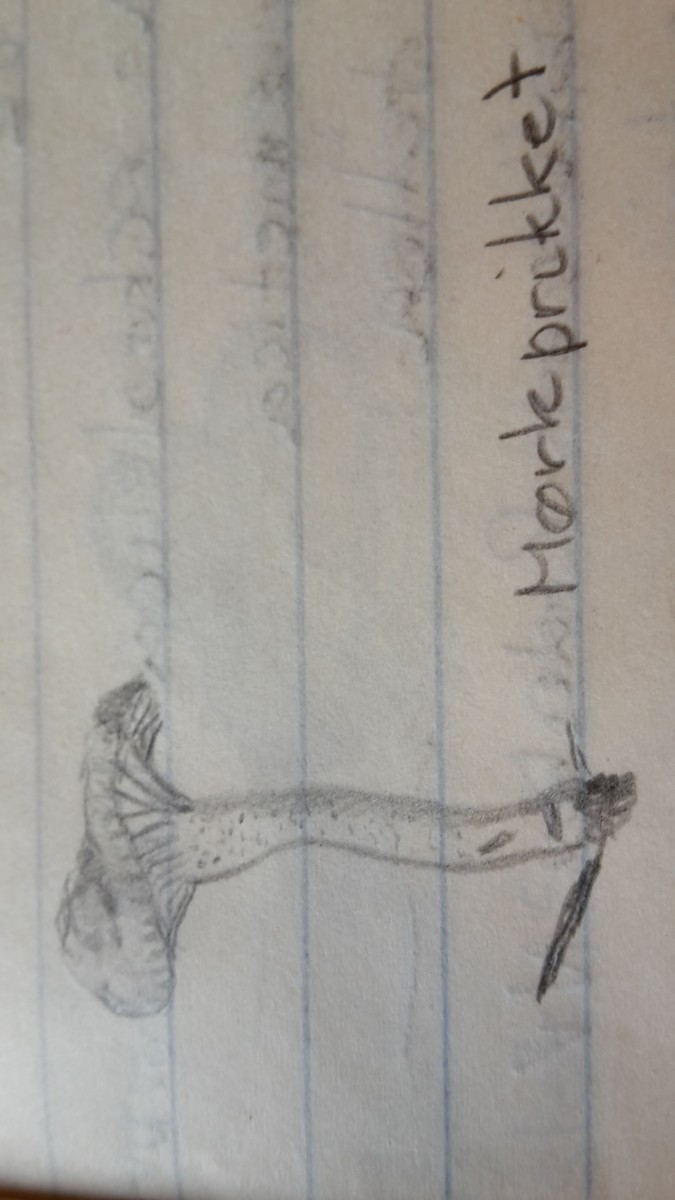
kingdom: Fungi
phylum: Basidiomycota
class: Agaricomycetes
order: Agaricales
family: Hygrophoraceae
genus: Hygrophorus
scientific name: Hygrophorus pustulatus
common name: mørkprikket sneglehat
